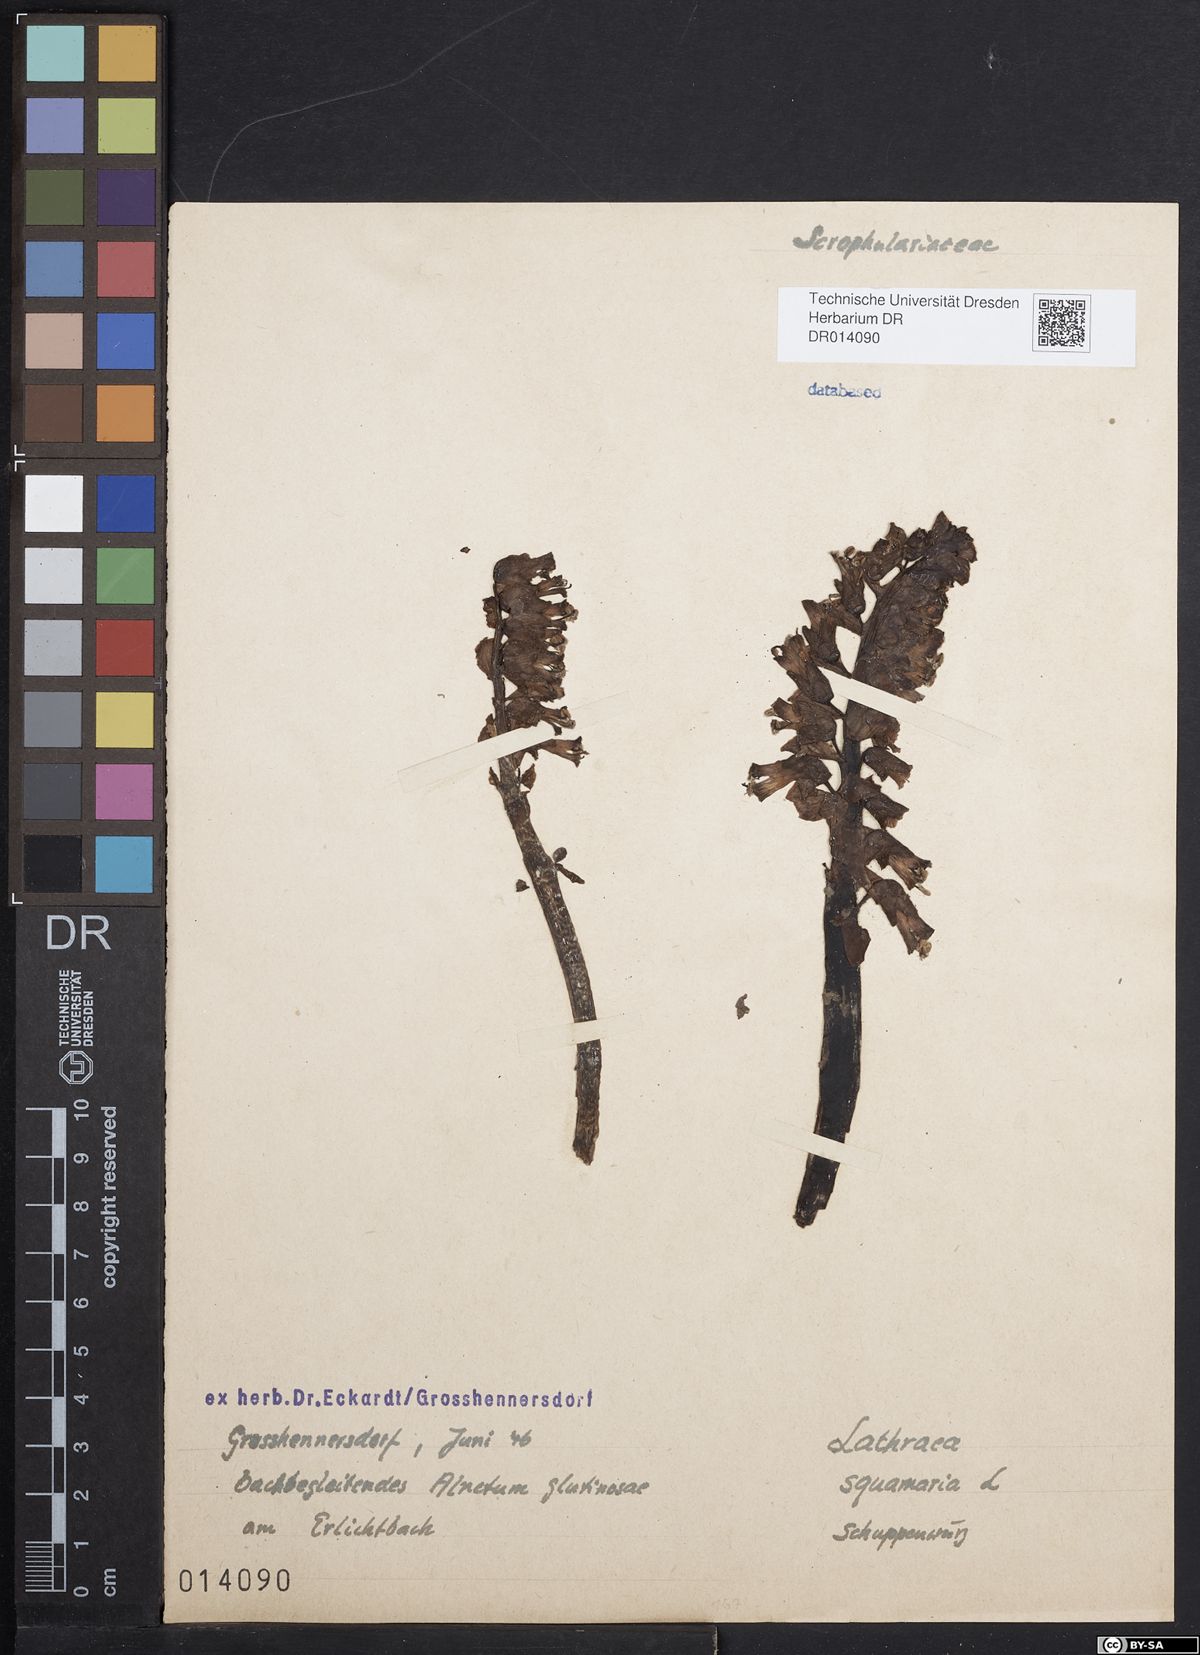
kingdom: Plantae
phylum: Tracheophyta
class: Magnoliopsida
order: Lamiales
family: Orobanchaceae
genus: Lathraea
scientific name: Lathraea squamaria
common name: Toothwort
